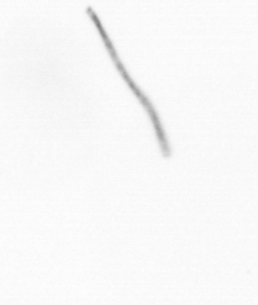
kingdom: Chromista
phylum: Ochrophyta
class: Bacillariophyceae
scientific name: Bacillariophyceae
